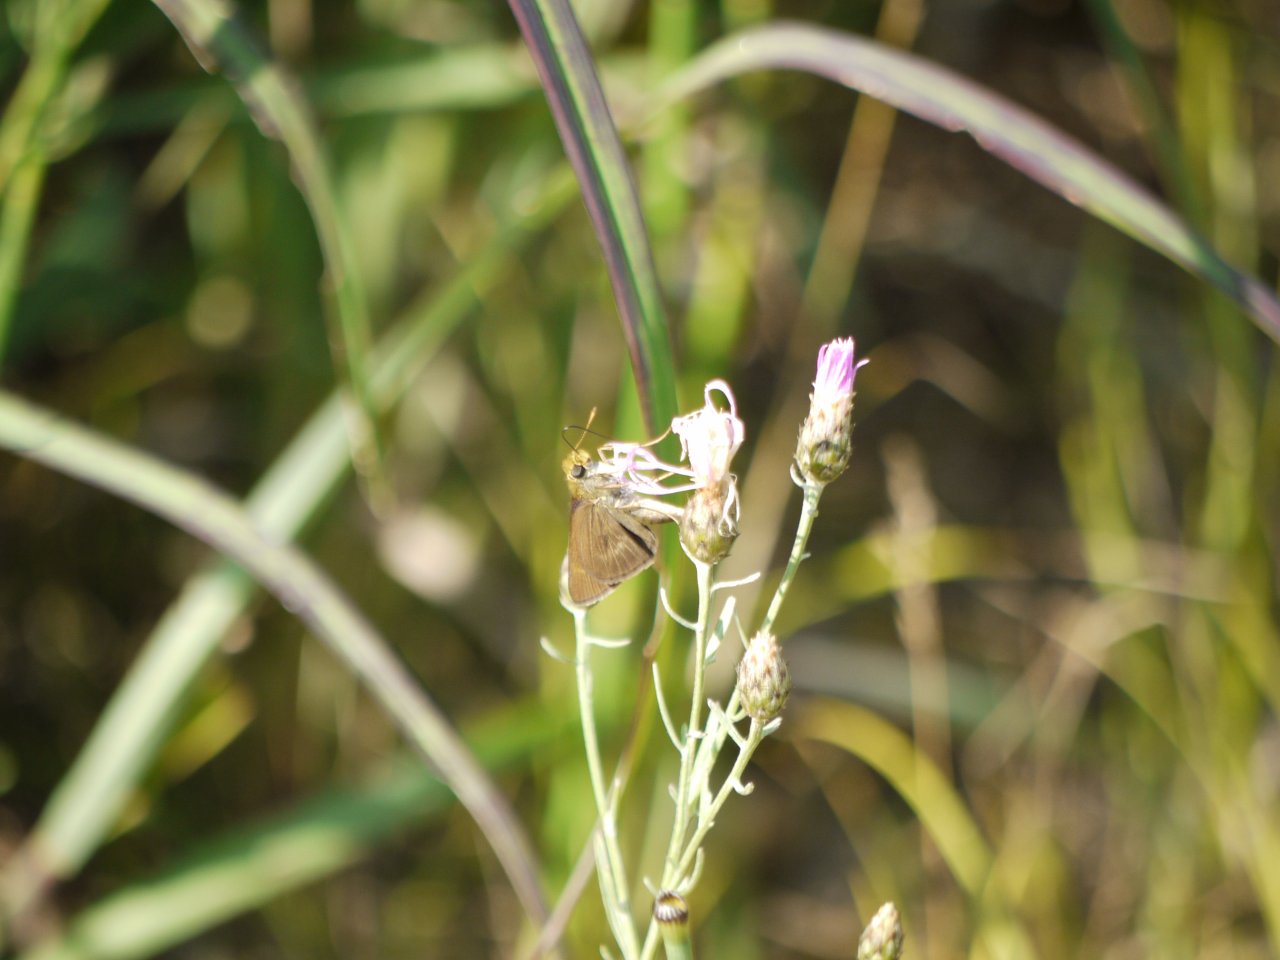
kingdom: Animalia
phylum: Arthropoda
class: Insecta
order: Lepidoptera
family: Hesperiidae
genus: Euphyes
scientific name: Euphyes vestris
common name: Dun Skipper
